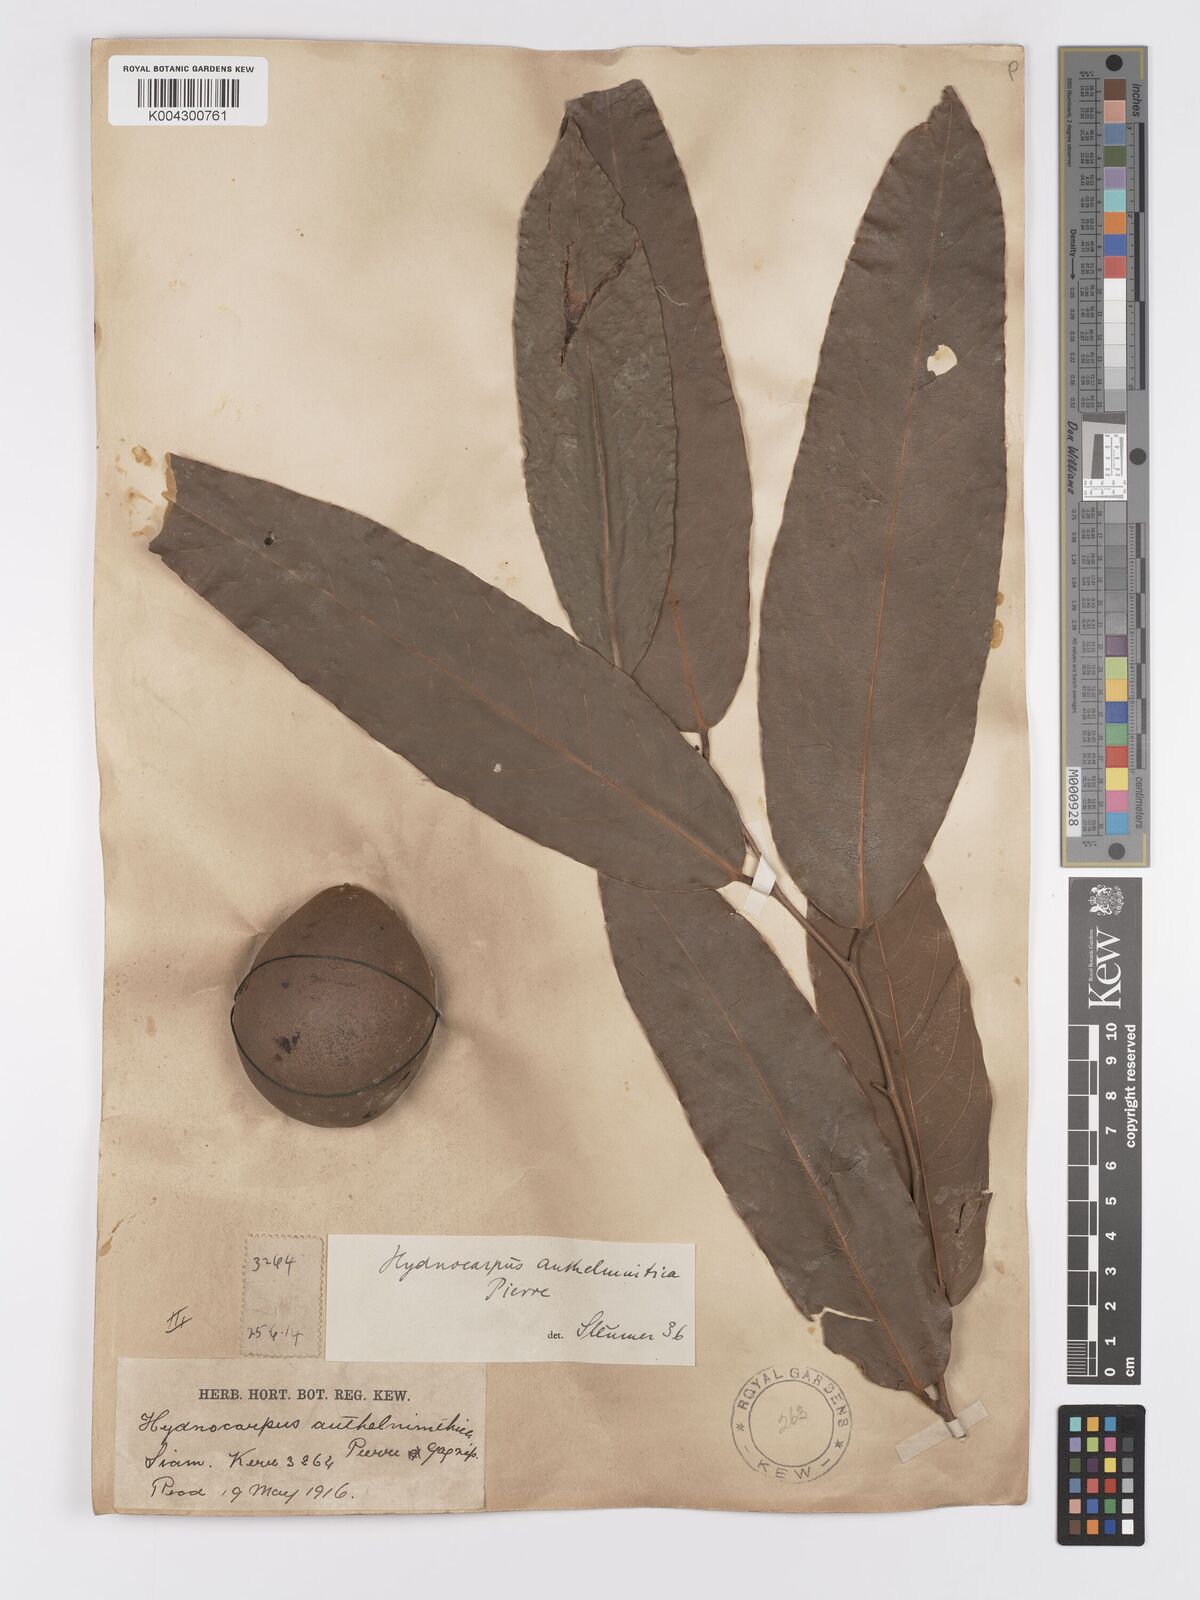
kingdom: Plantae
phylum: Tracheophyta
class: Magnoliopsida
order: Malpighiales
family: Achariaceae
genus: Hydnocarpus
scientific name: Hydnocarpus castaneus
